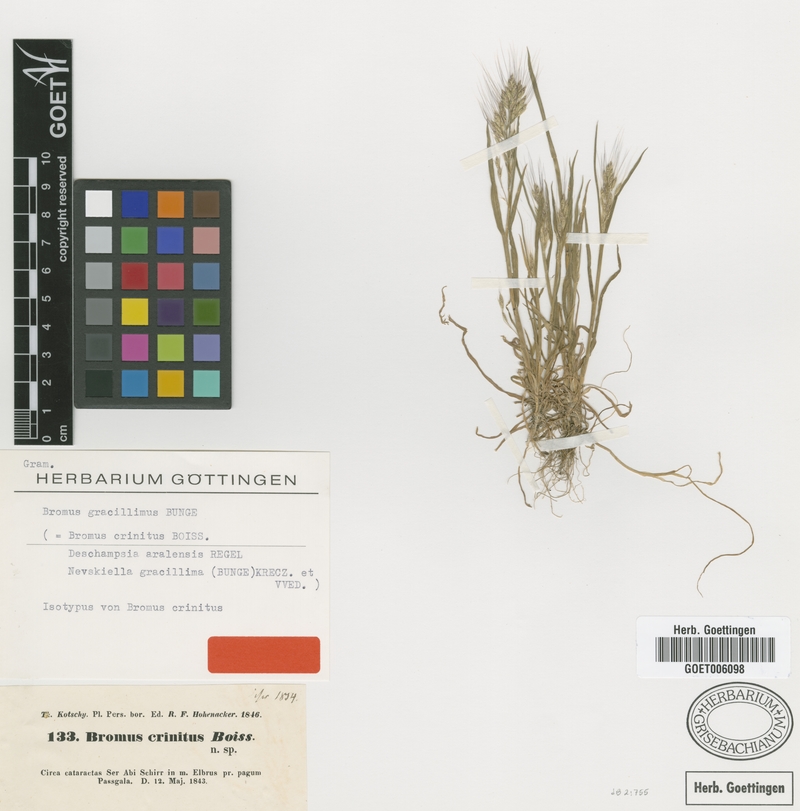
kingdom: Plantae
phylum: Tracheophyta
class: Liliopsida
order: Poales
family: Poaceae
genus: Bromus
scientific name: Bromus gracillimus
